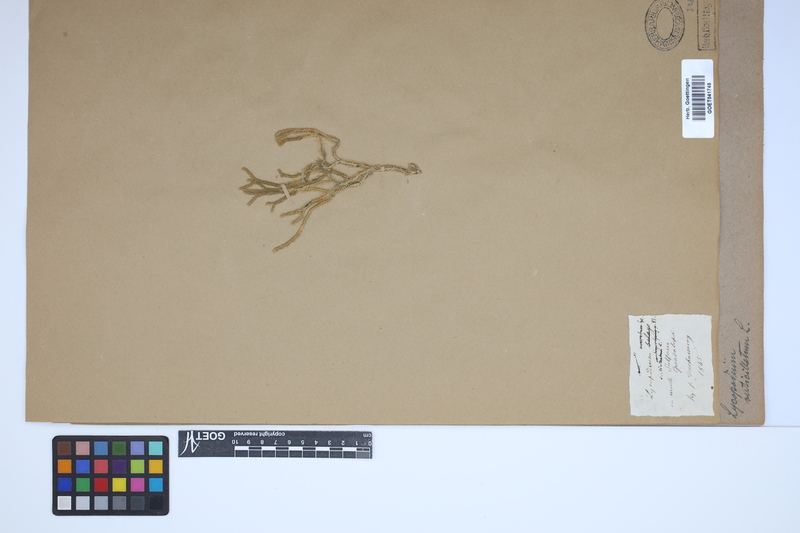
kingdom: Plantae
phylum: Tracheophyta
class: Lycopodiopsida
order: Lycopodiales
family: Lycopodiaceae
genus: Phlegmariurus
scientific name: Phlegmariurus verticillatus
